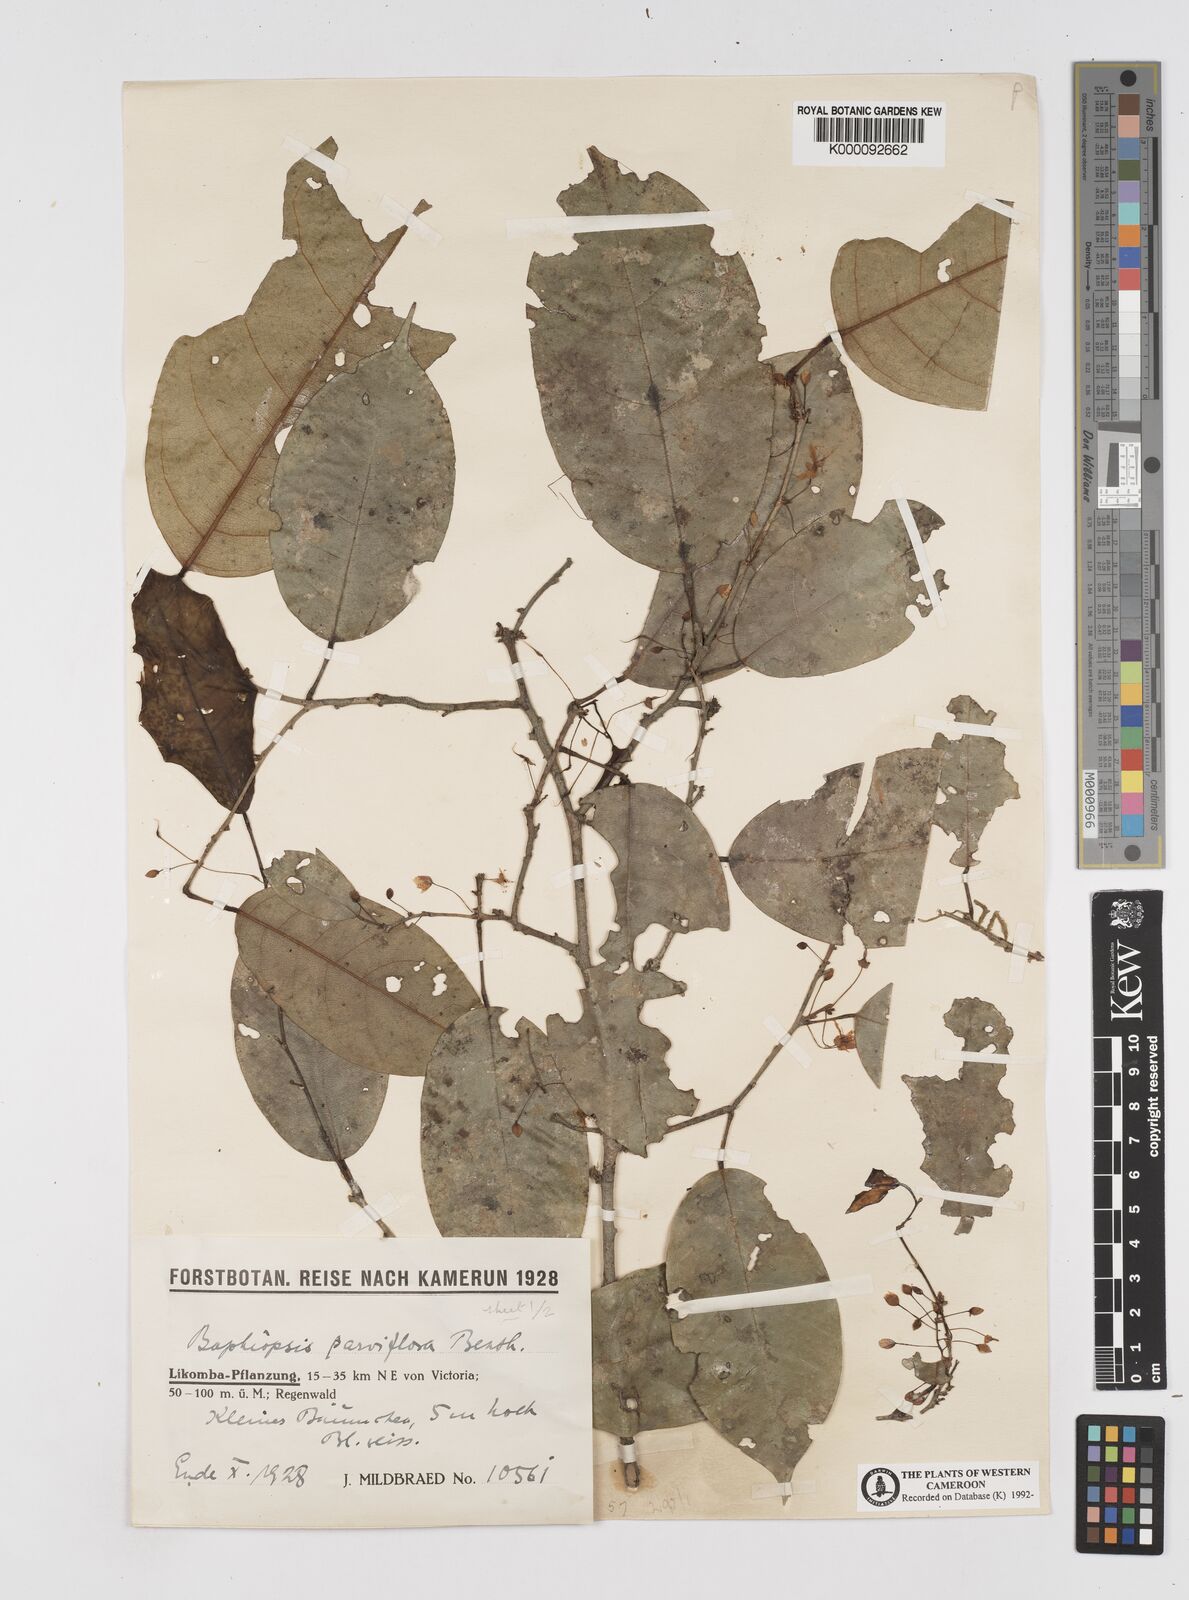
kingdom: Plantae
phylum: Tracheophyta
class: Magnoliopsida
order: Fabales
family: Fabaceae
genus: Baphiopsis
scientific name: Baphiopsis parviflora
